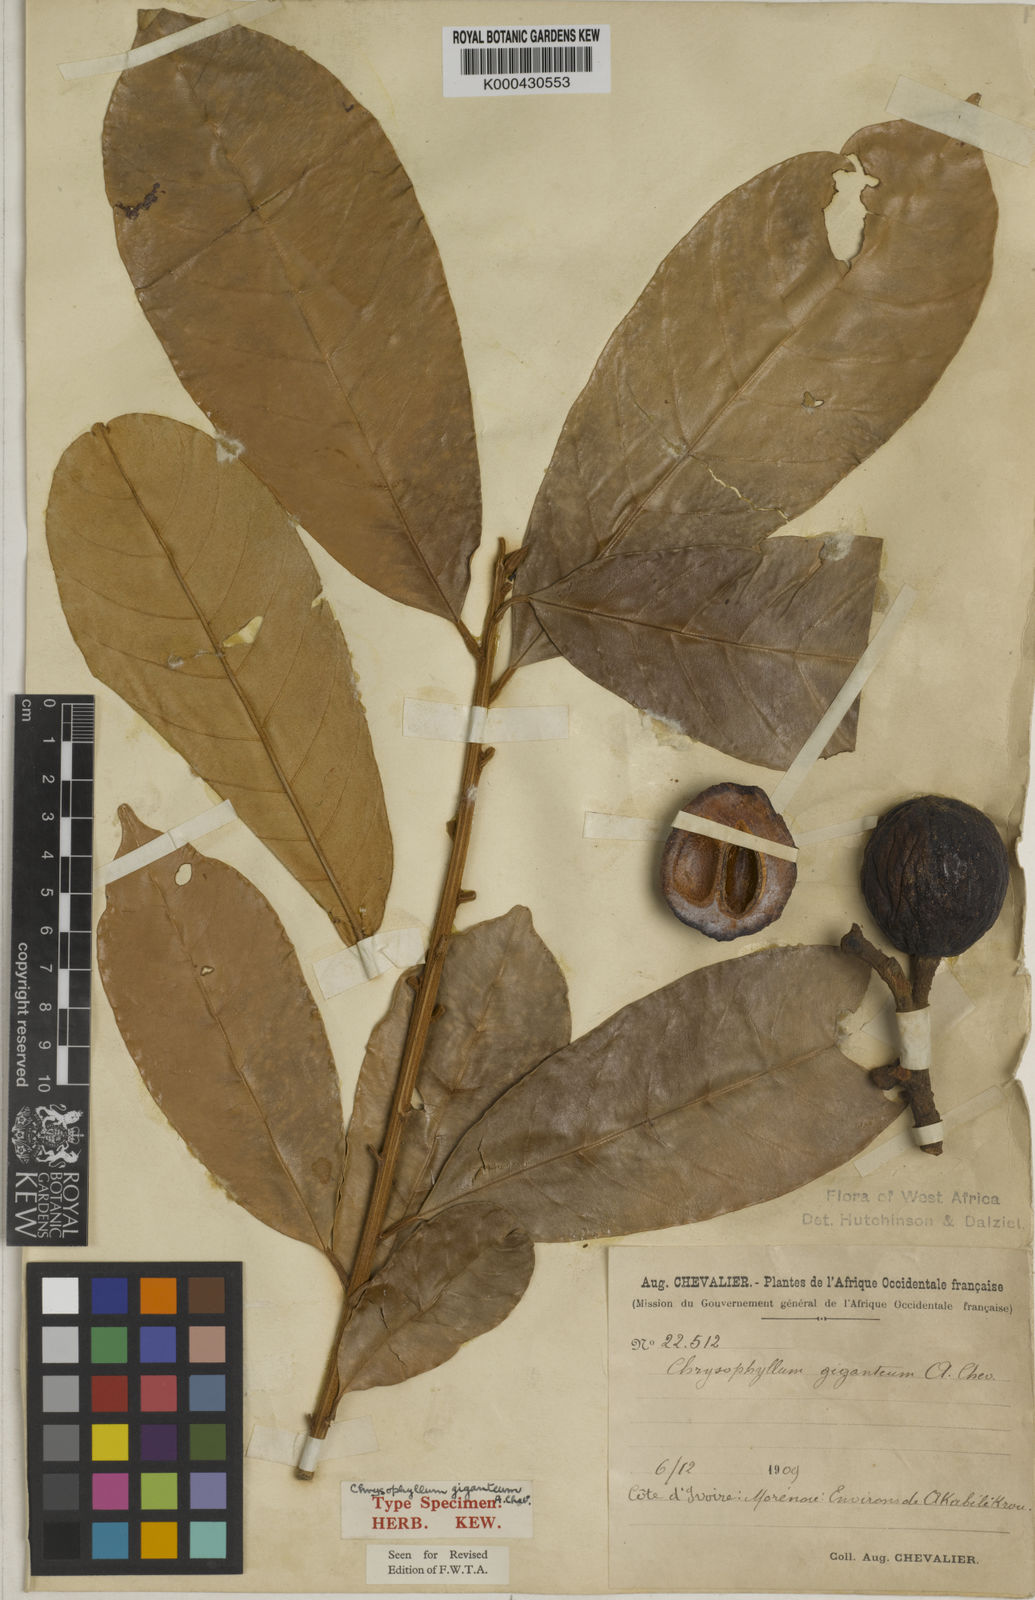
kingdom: Plantae
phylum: Tracheophyta
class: Magnoliopsida
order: Ericales
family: Sapotaceae
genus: Gambeya
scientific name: Gambeya gigantea
